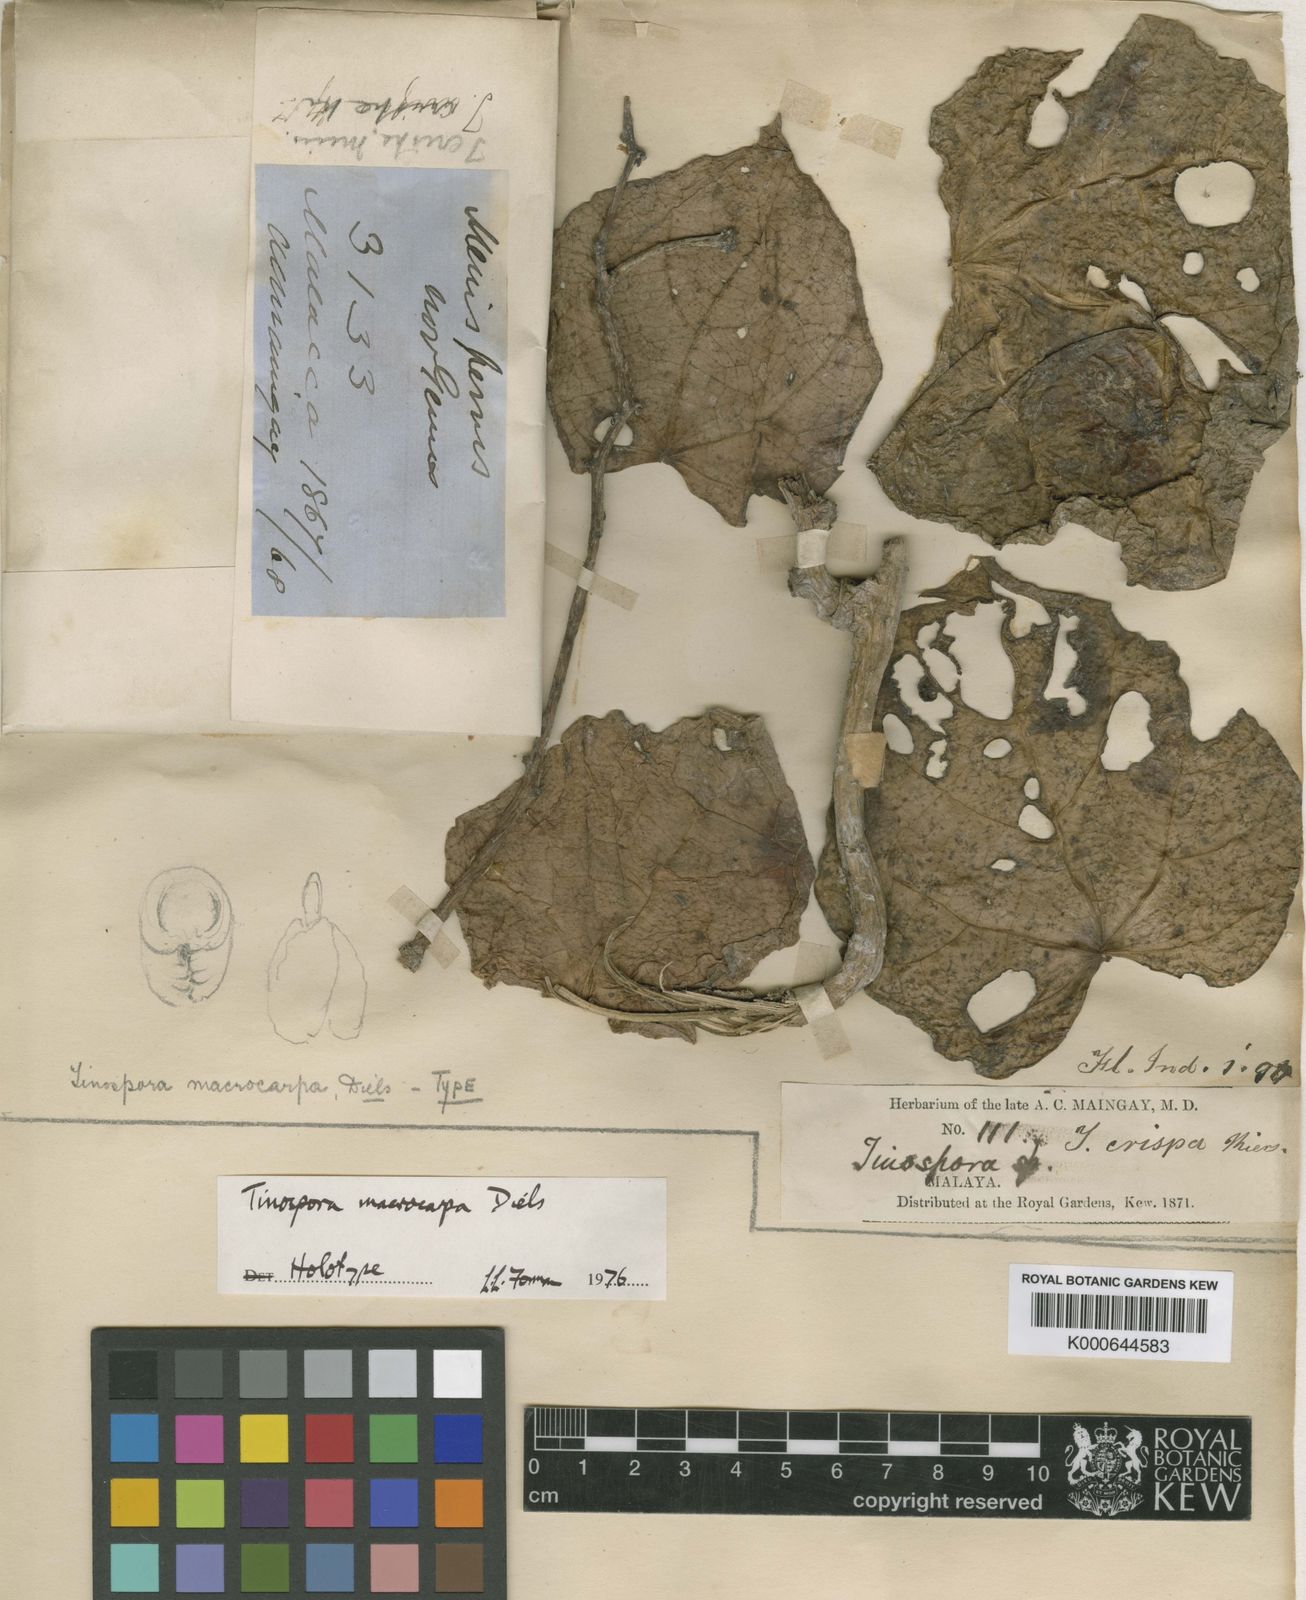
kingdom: Plantae
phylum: Tracheophyta
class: Magnoliopsida
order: Ranunculales
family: Menispermaceae
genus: Tinospora
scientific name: Tinospora macrocarpa
